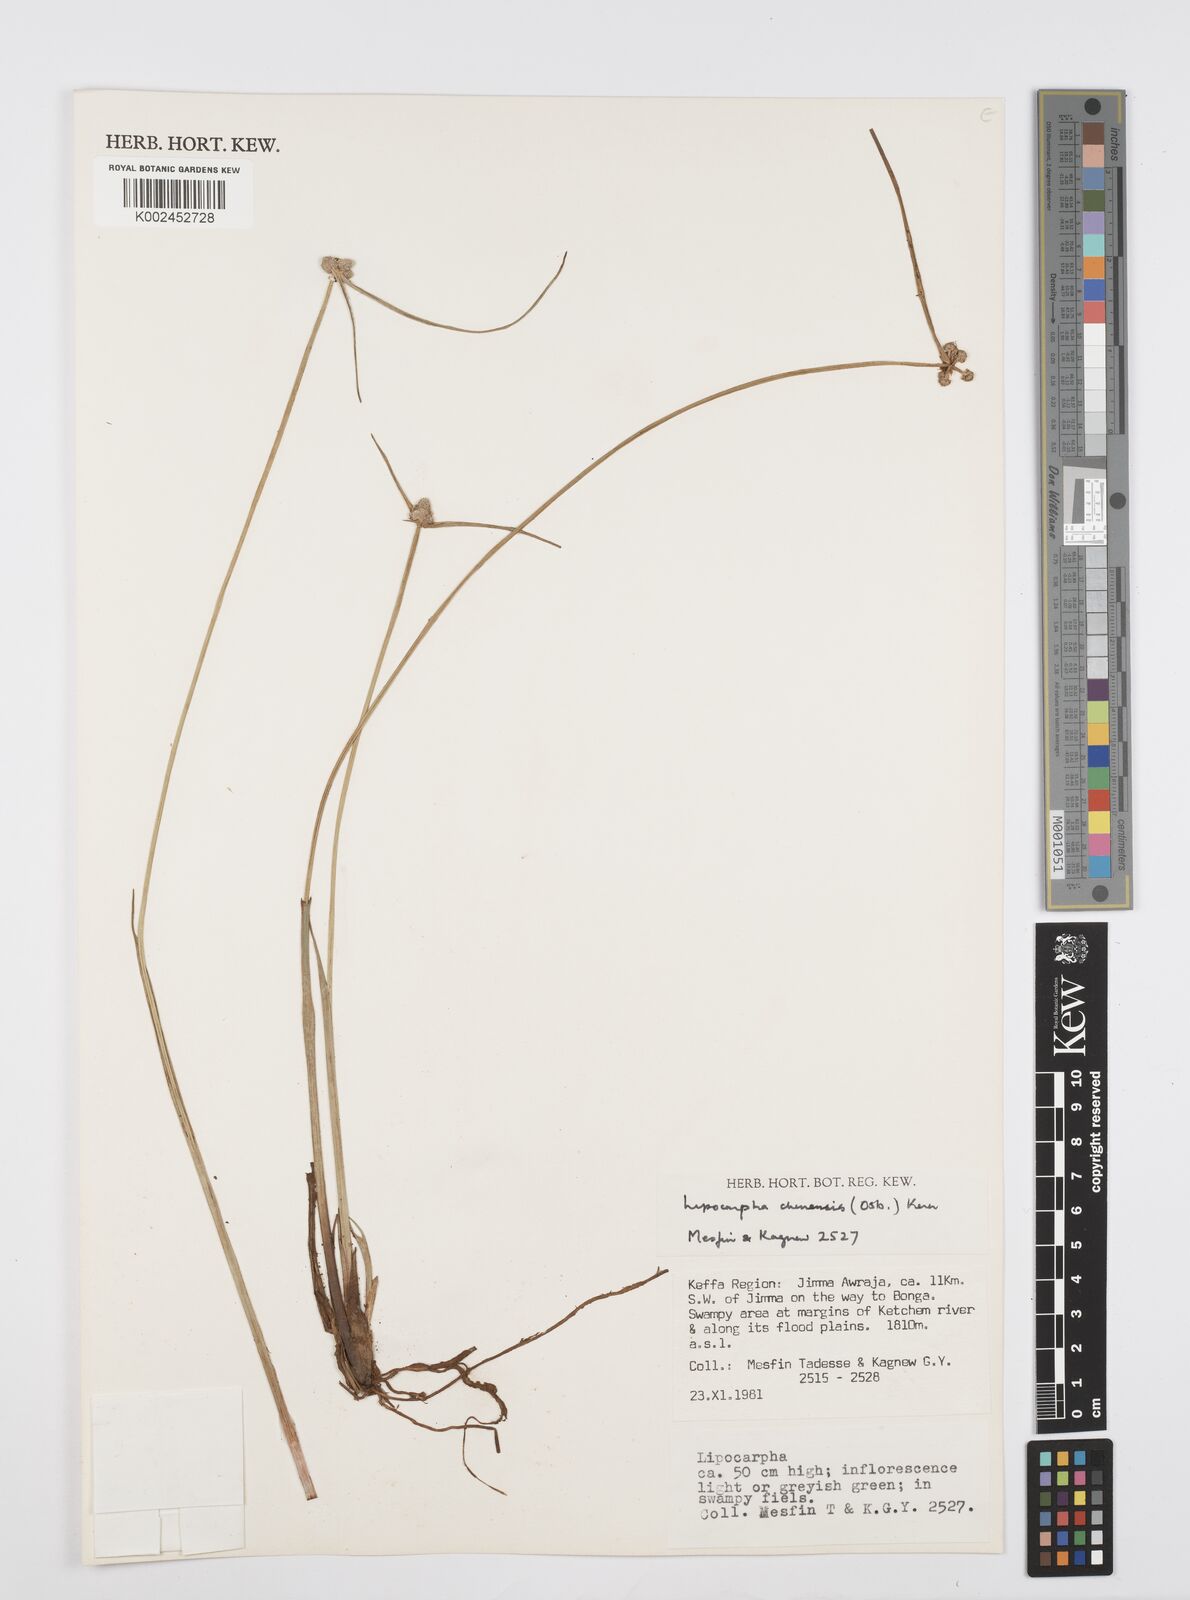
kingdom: Plantae
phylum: Tracheophyta
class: Liliopsida
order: Poales
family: Cyperaceae
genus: Cyperus
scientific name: Cyperus albescens
